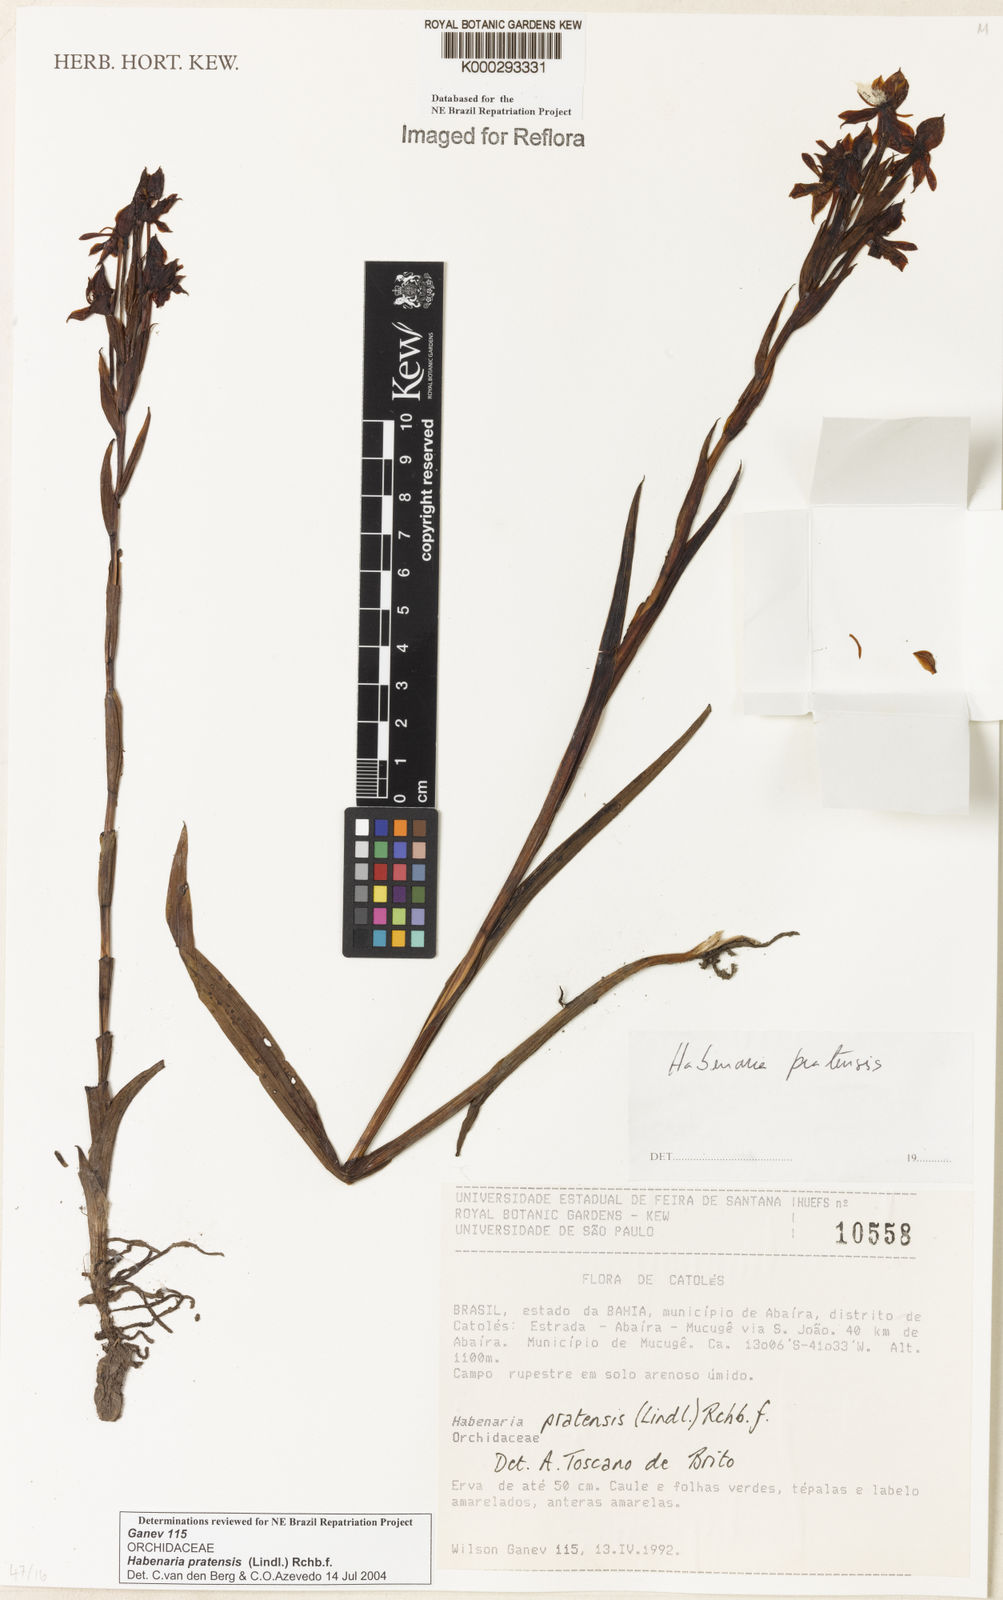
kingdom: Plantae
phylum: Tracheophyta
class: Liliopsida
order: Asparagales
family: Orchidaceae
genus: Habenaria
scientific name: Habenaria pratensis
